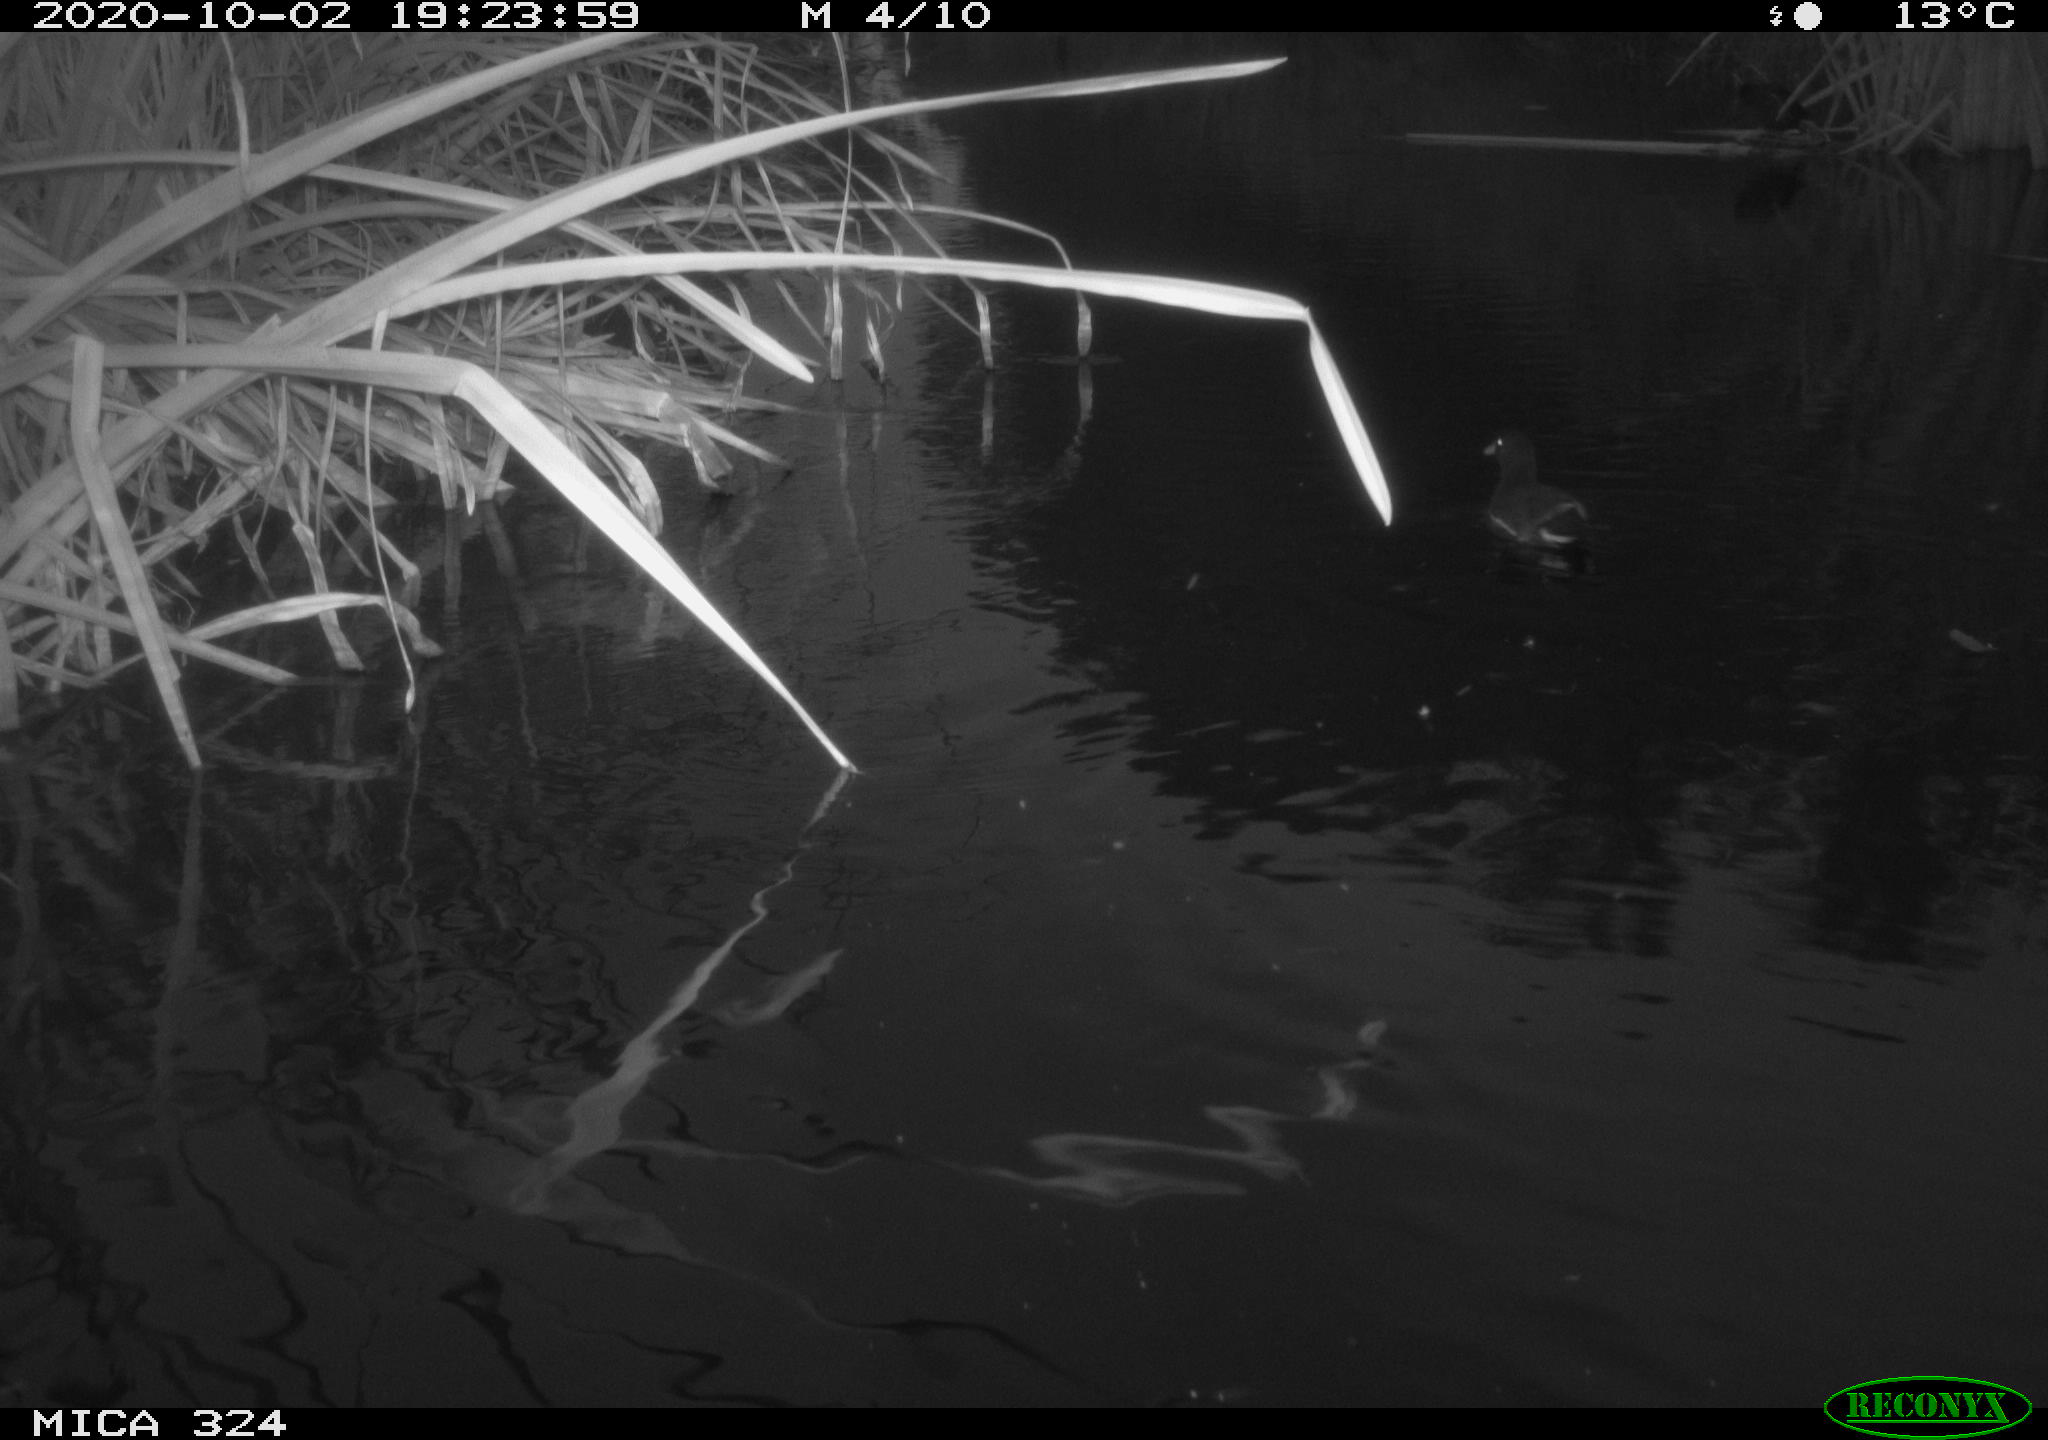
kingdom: Animalia
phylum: Chordata
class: Aves
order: Gruiformes
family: Rallidae
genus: Gallinula
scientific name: Gallinula chloropus
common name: Common moorhen
